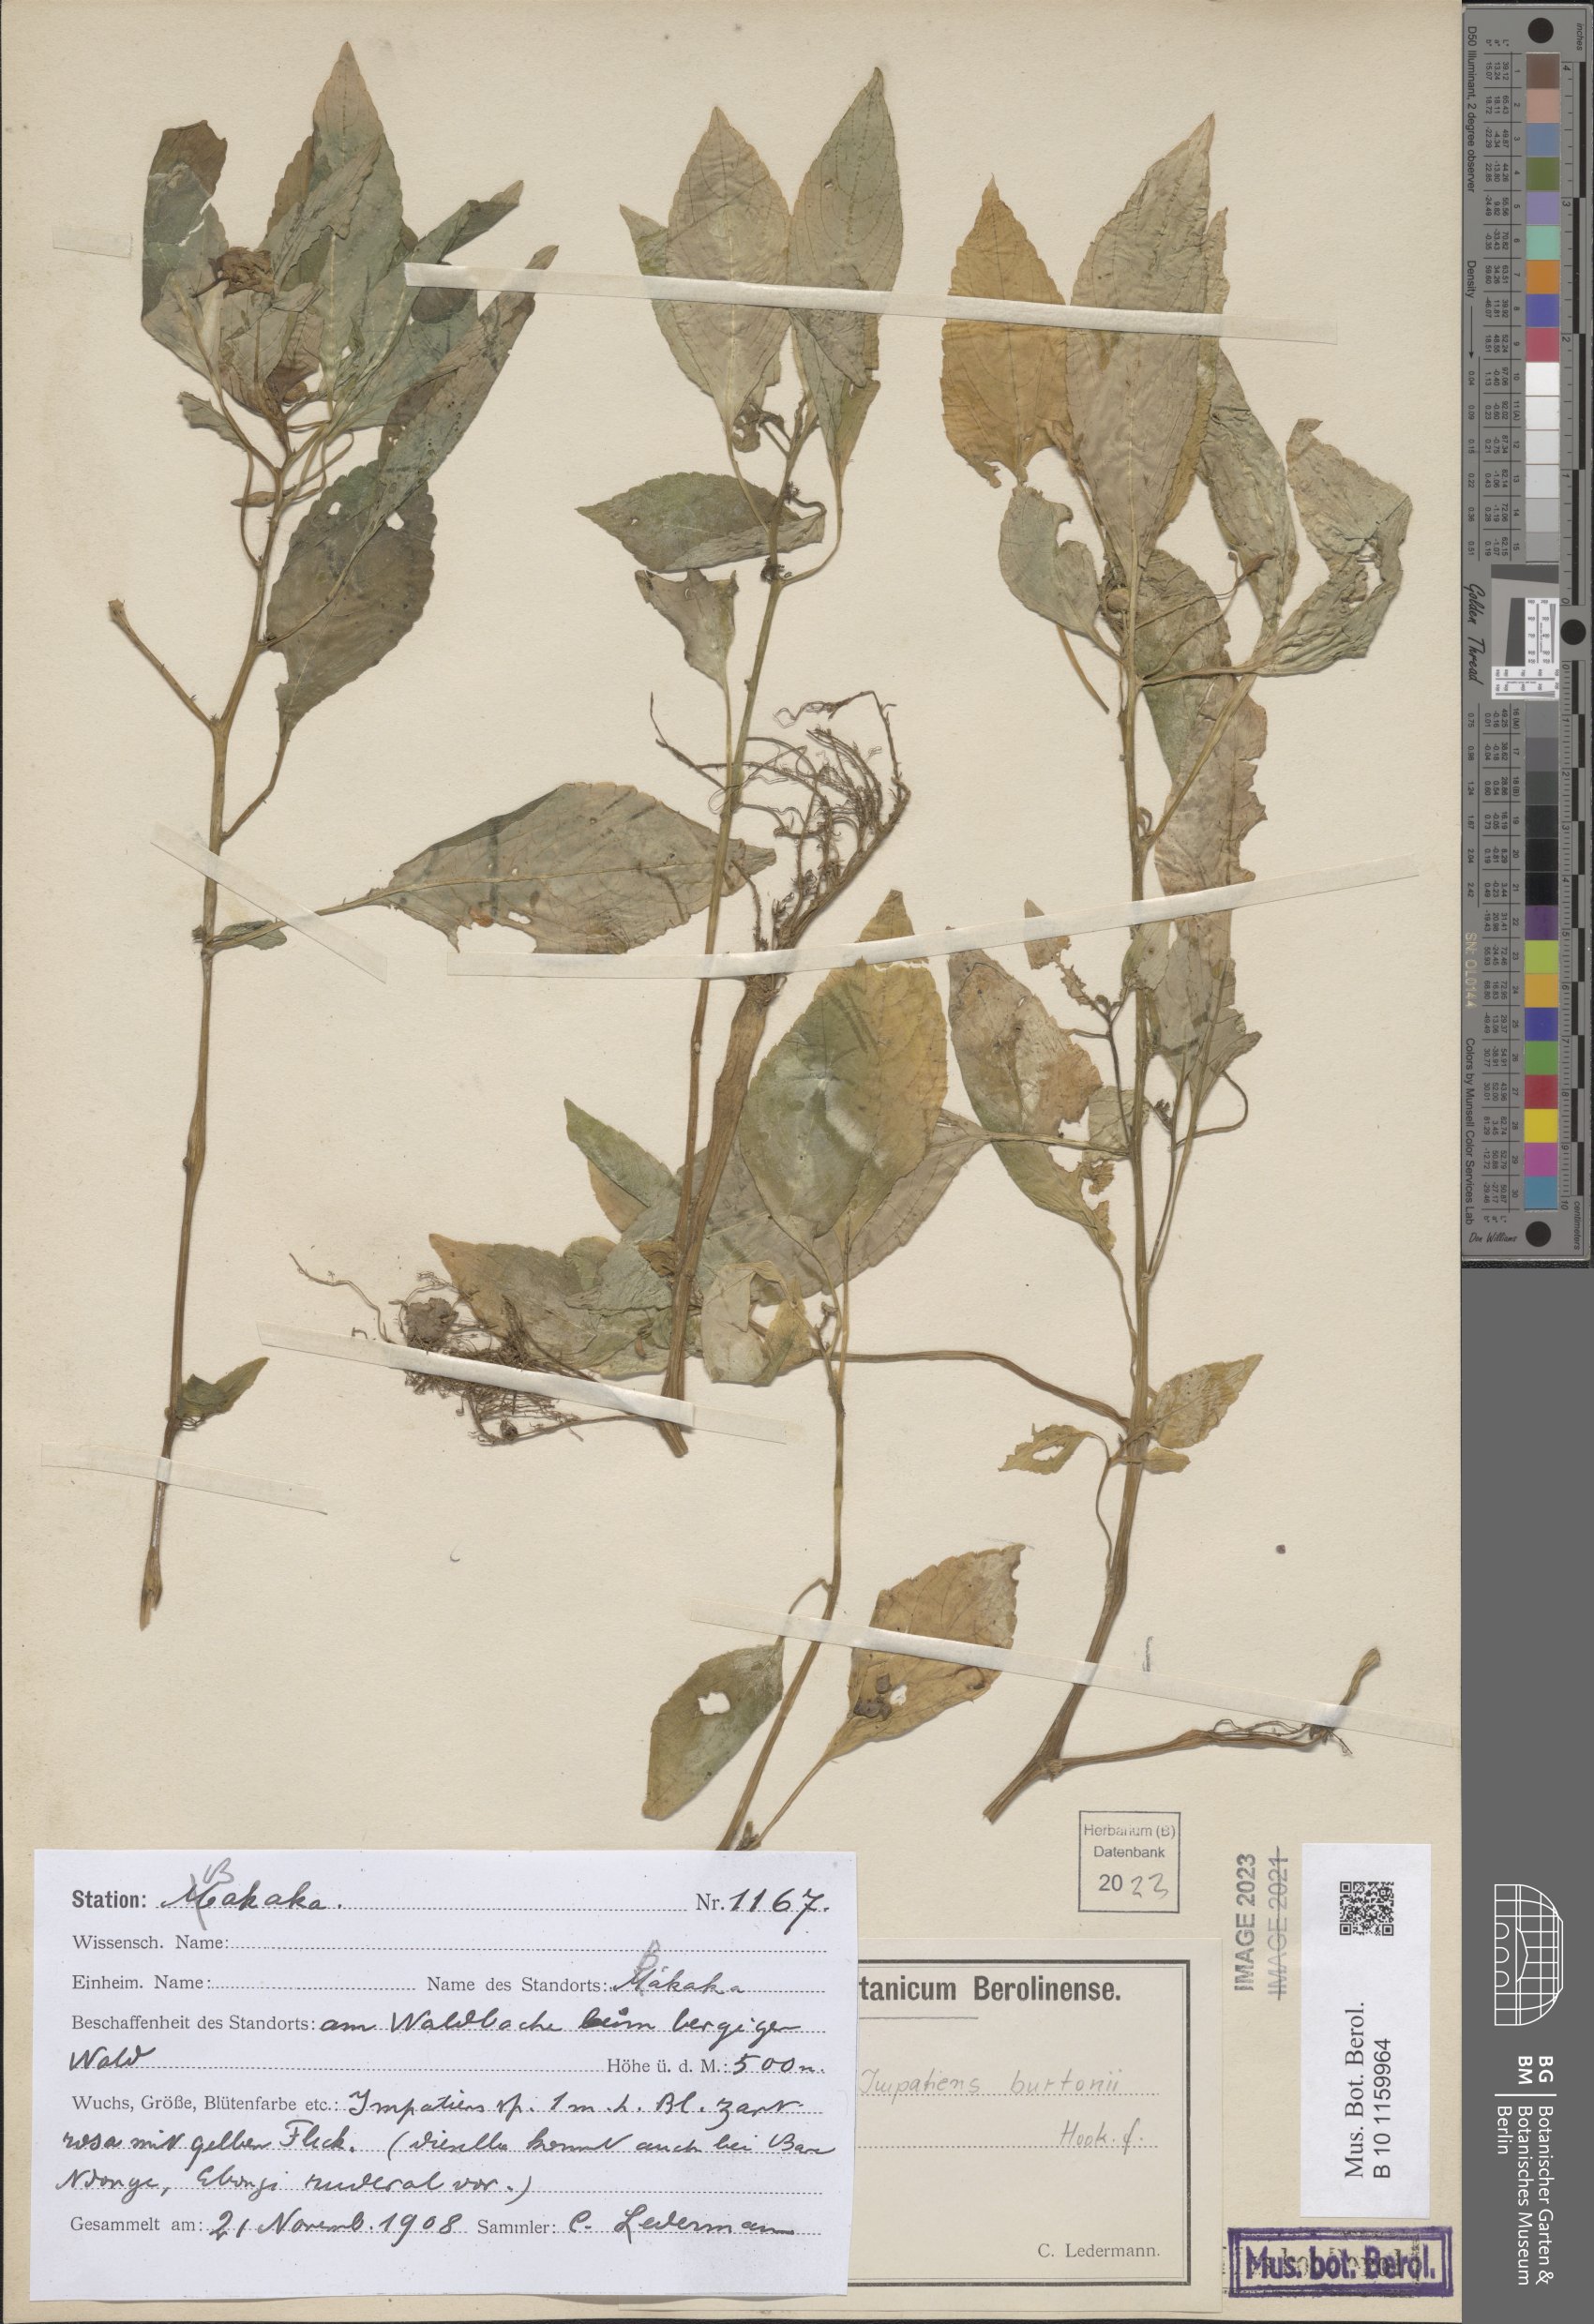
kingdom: Plantae
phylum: Tracheophyta
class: Magnoliopsida
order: Ericales
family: Balsaminaceae
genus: Impatiens
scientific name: Impatiens burtonii
